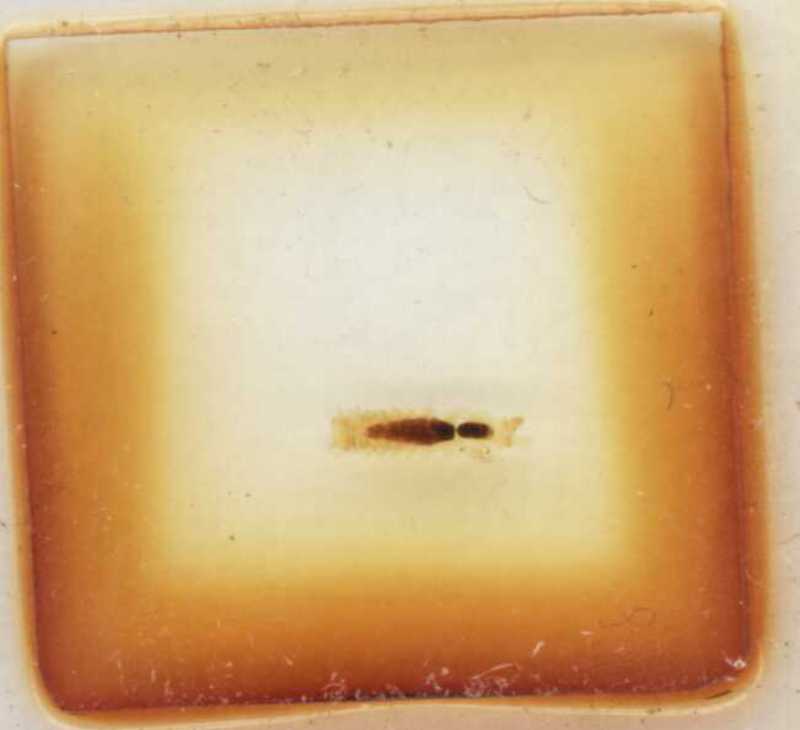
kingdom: Animalia
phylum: Arthropoda
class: Diplopoda
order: Polyxenida
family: Lophoproctidae
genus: Lophoproctus
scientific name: Lophoproctus lucidus
